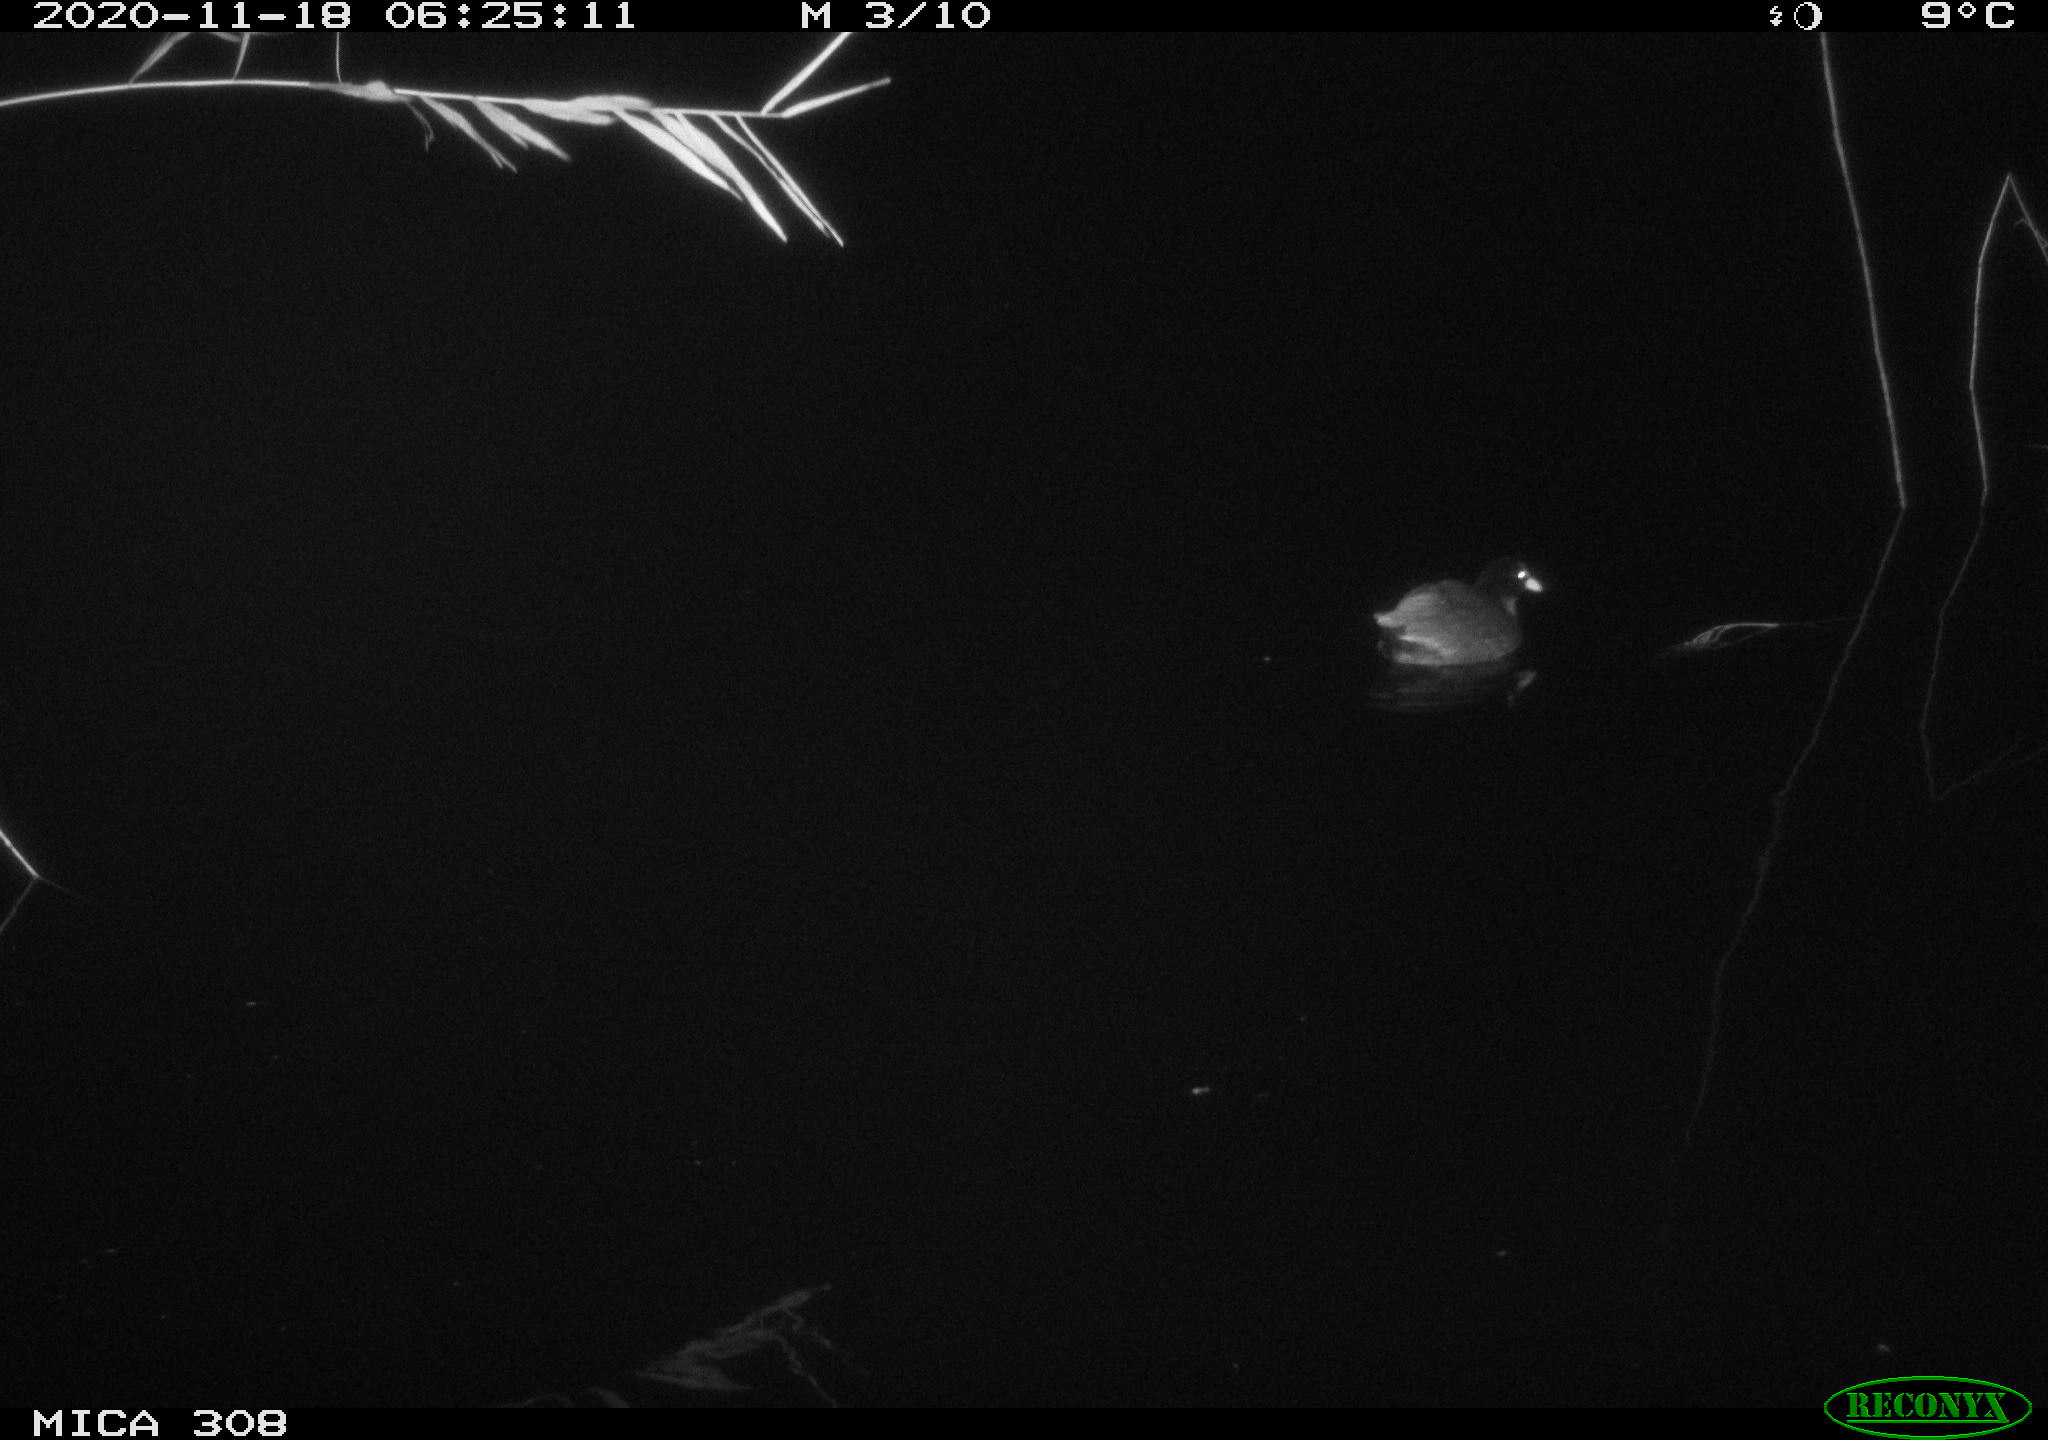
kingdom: Animalia
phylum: Chordata
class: Aves
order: Gruiformes
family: Rallidae
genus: Fulica
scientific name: Fulica atra
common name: Eurasian coot
